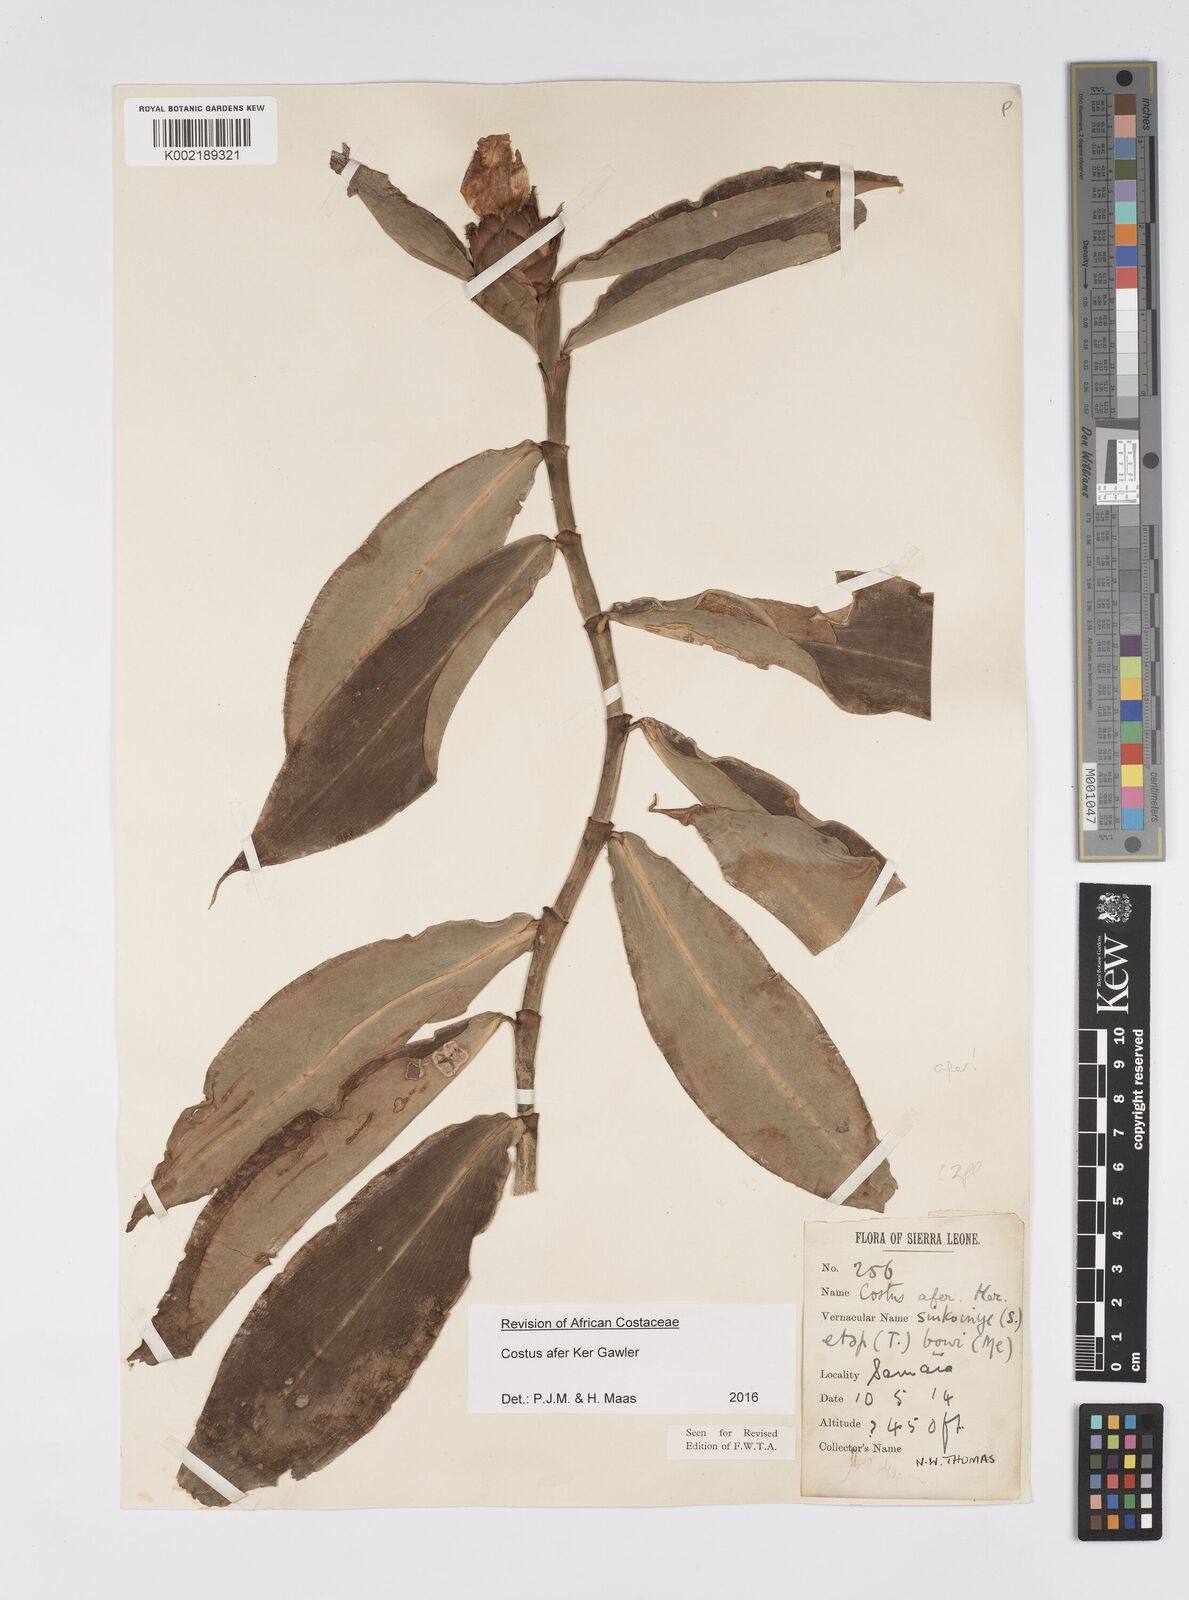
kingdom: Plantae
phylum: Tracheophyta
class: Liliopsida
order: Zingiberales
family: Costaceae
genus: Costus
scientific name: Costus afer
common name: Spiral-ginger
